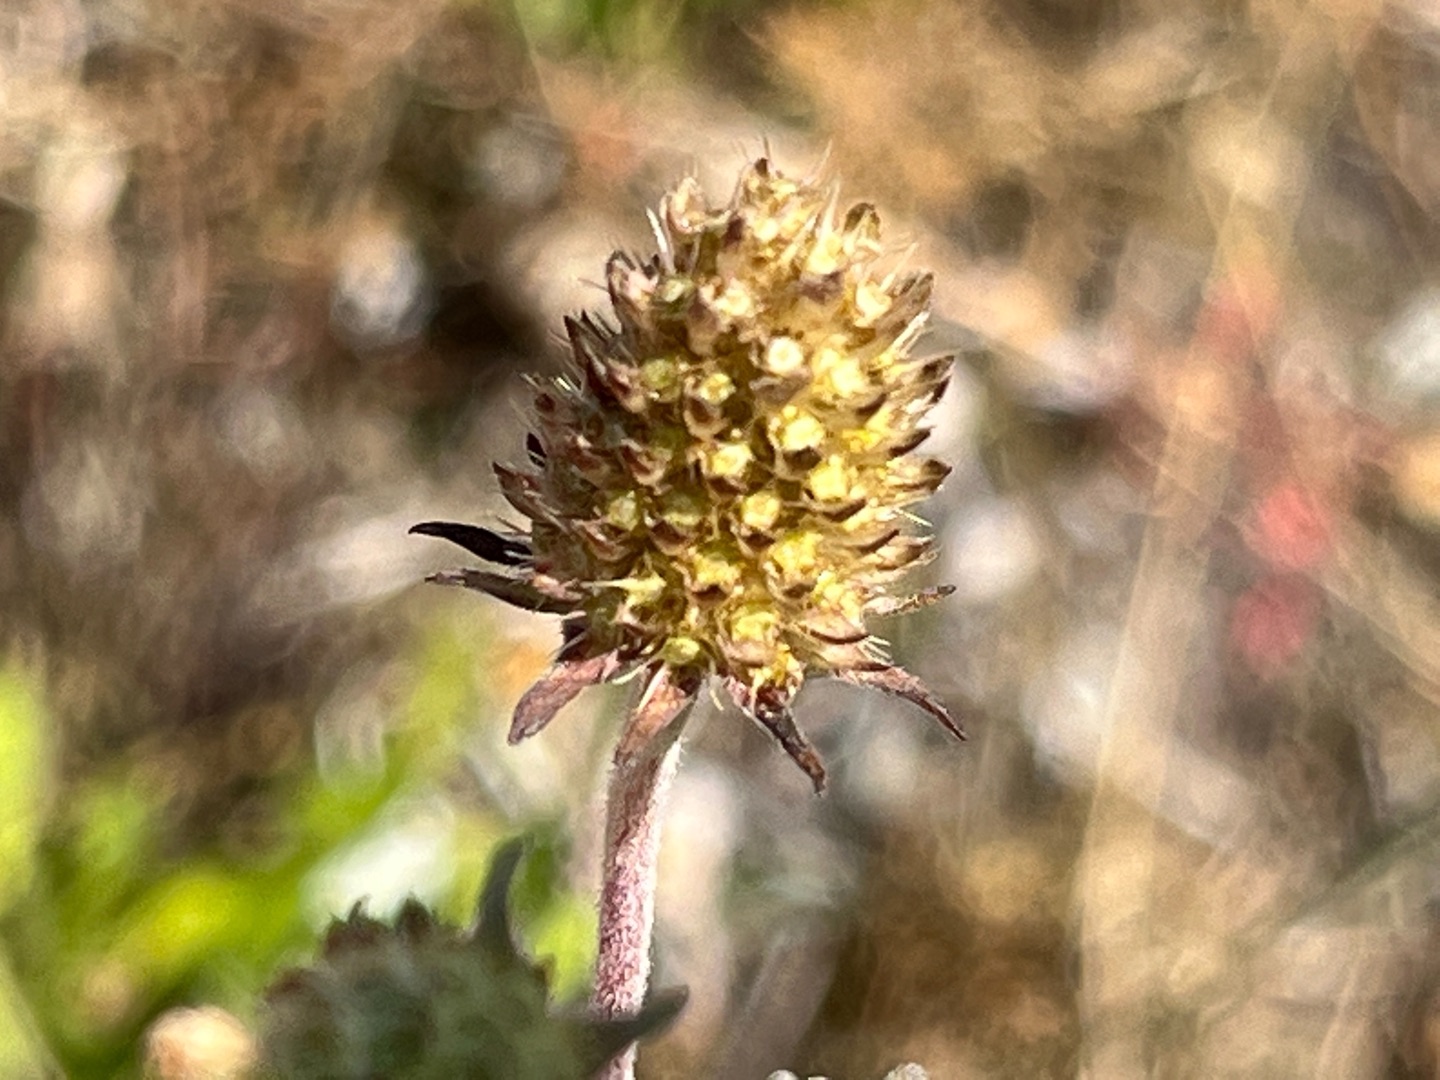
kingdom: Plantae
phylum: Tracheophyta
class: Magnoliopsida
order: Dipsacales
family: Caprifoliaceae
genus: Scabiosa
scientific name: Scabiosa canescens
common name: Vellugtende skabiose
